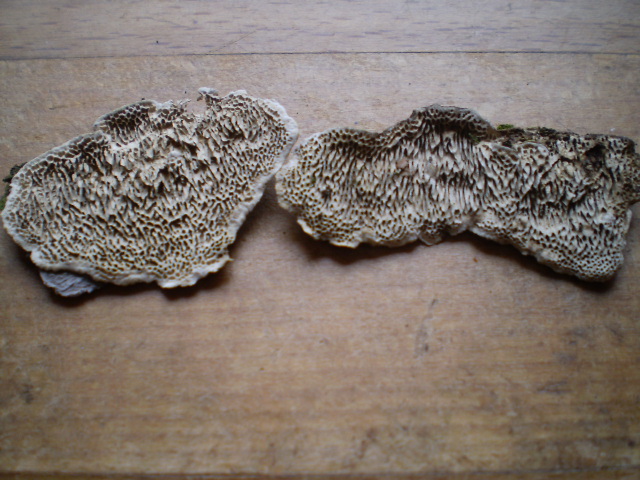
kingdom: Fungi
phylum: Basidiomycota
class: Agaricomycetes
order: Polyporales
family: Polyporaceae
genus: Podofomes
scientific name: Podofomes mollis
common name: blød begporesvamp
